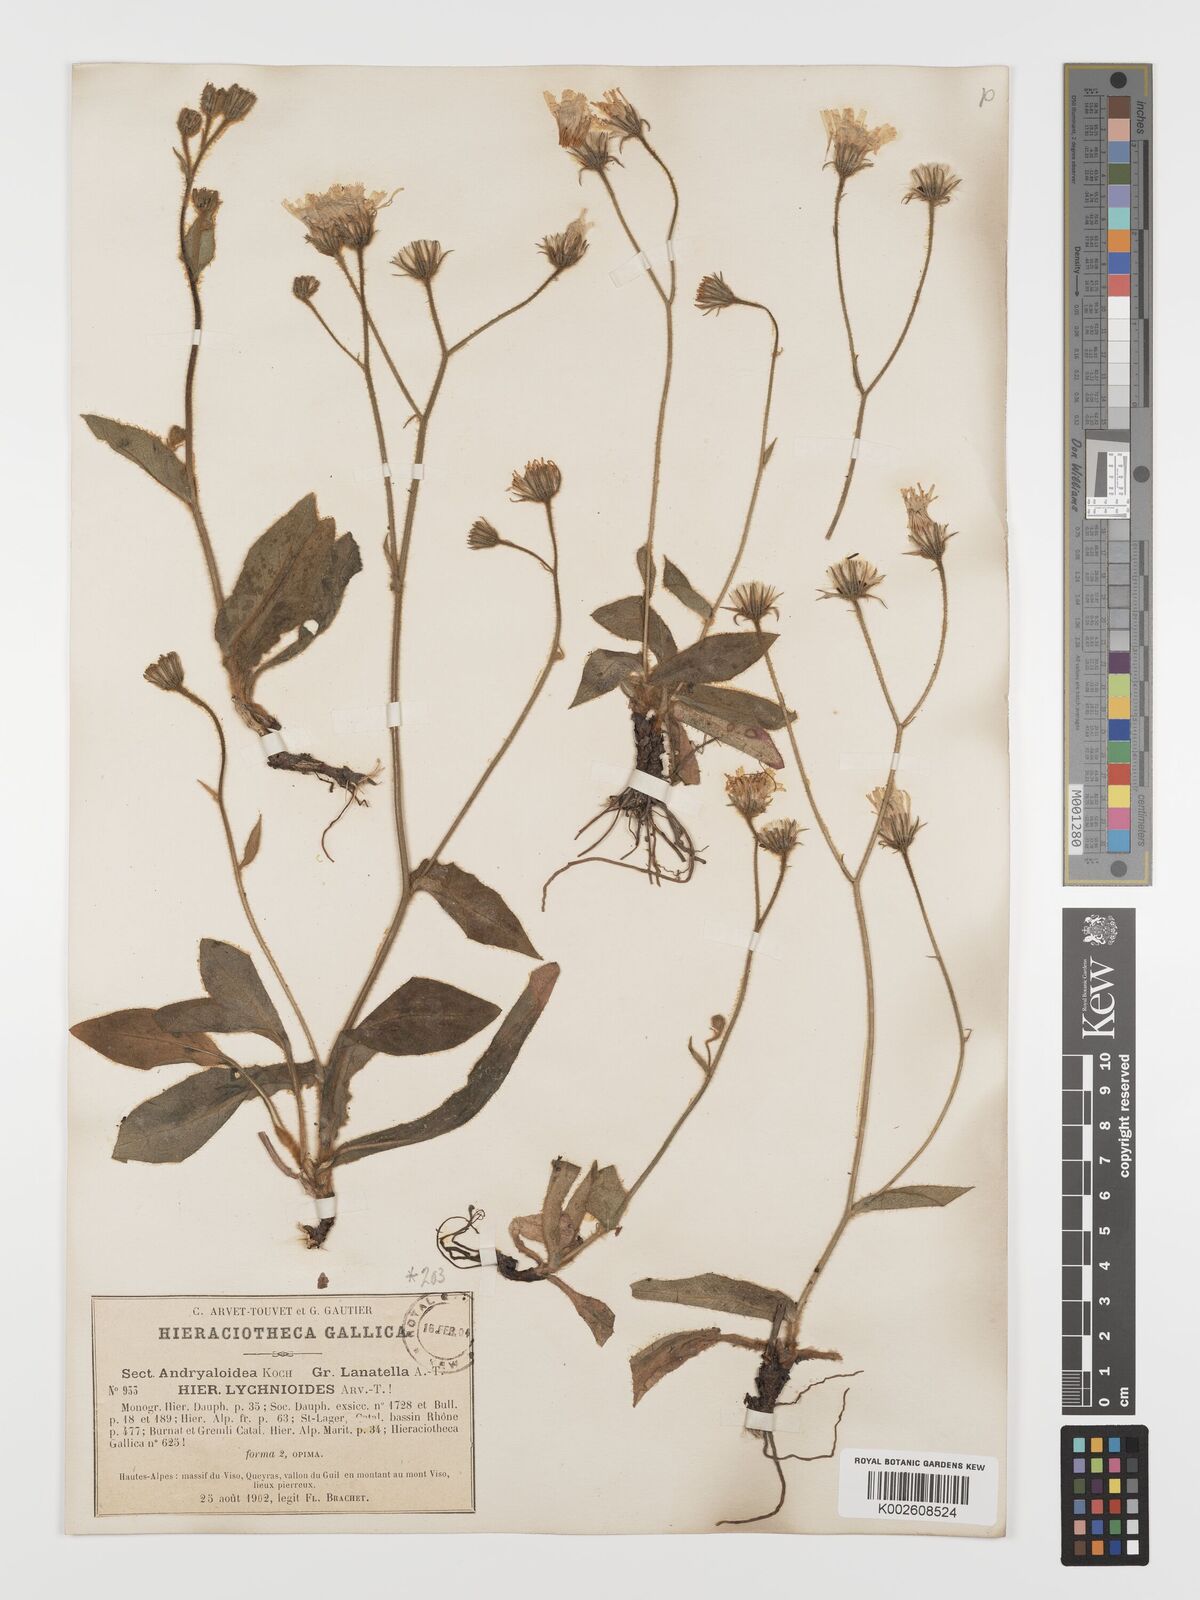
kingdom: Plantae
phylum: Tracheophyta
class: Magnoliopsida
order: Asterales
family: Asteraceae
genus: Hieracium
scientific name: Hieracium lychnioides
